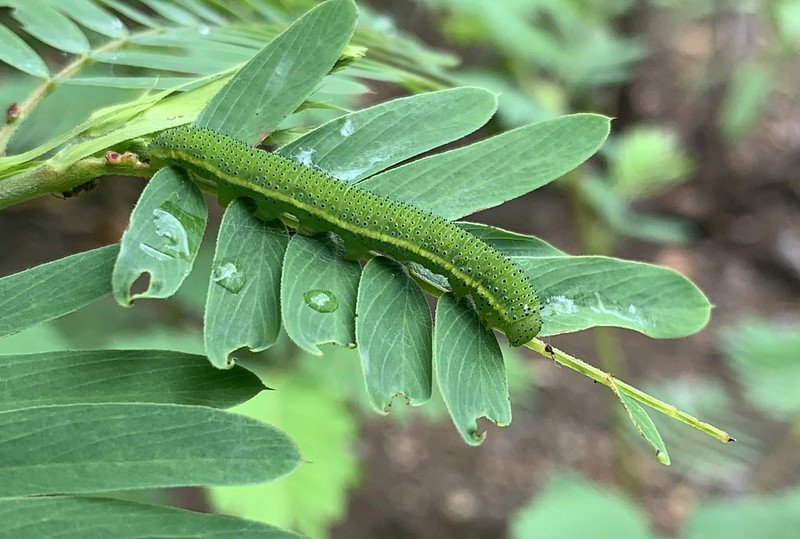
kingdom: Animalia
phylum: Arthropoda
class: Insecta
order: Lepidoptera
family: Pieridae
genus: Phoebis
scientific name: Phoebis sennae
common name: Cloudless Sulphur
